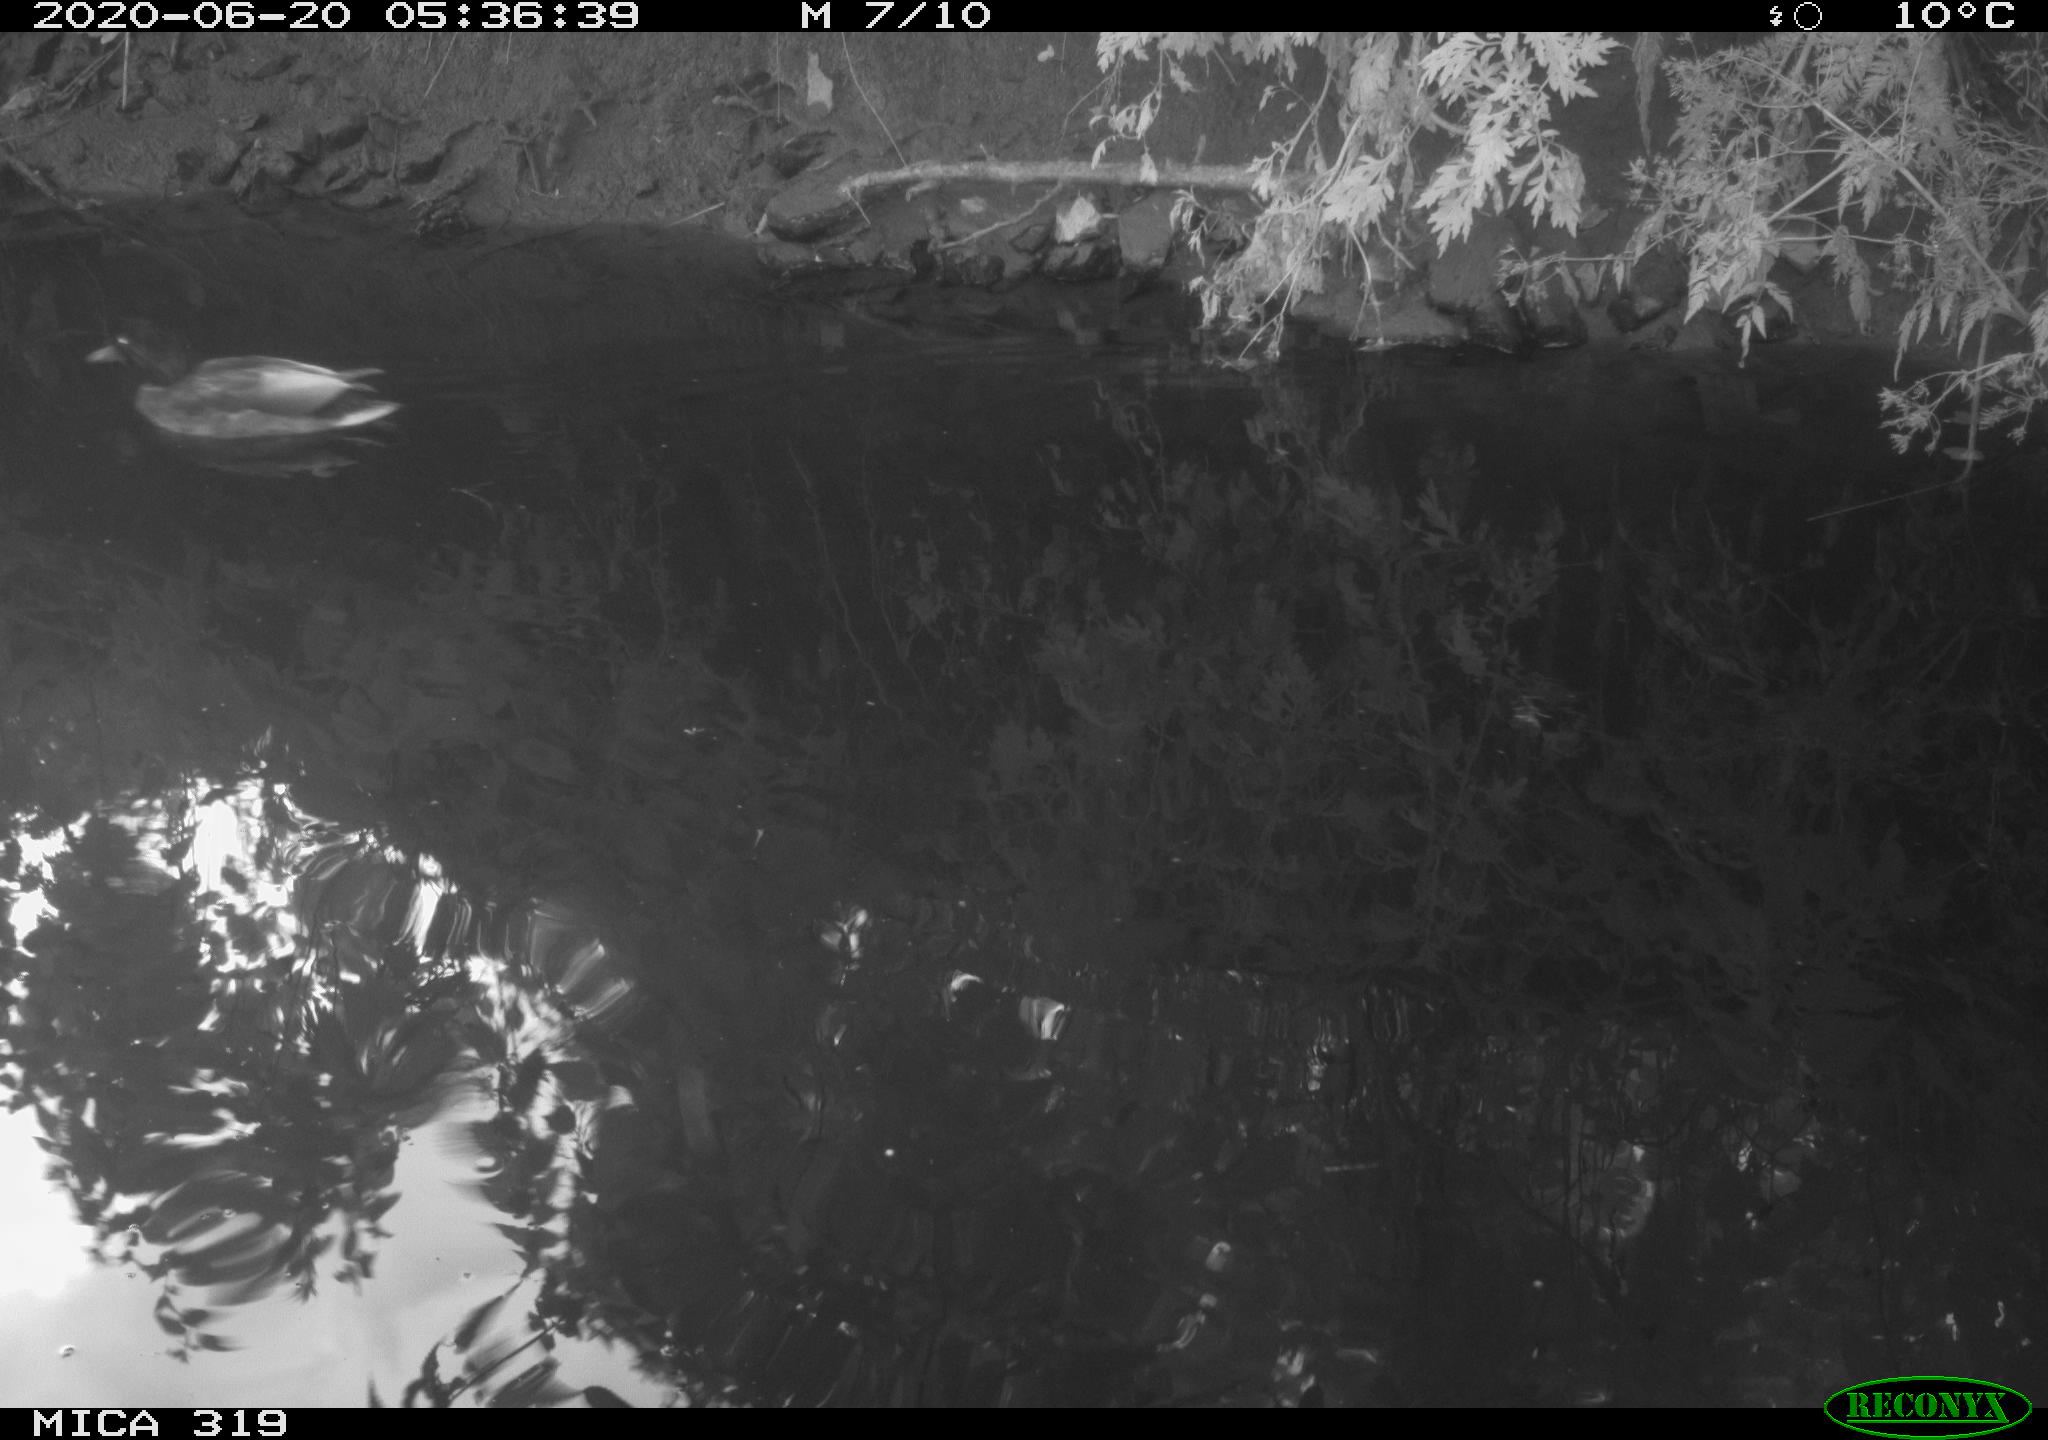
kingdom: Animalia
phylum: Chordata
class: Aves
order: Anseriformes
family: Anatidae
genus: Anas
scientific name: Anas platyrhynchos
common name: Mallard
